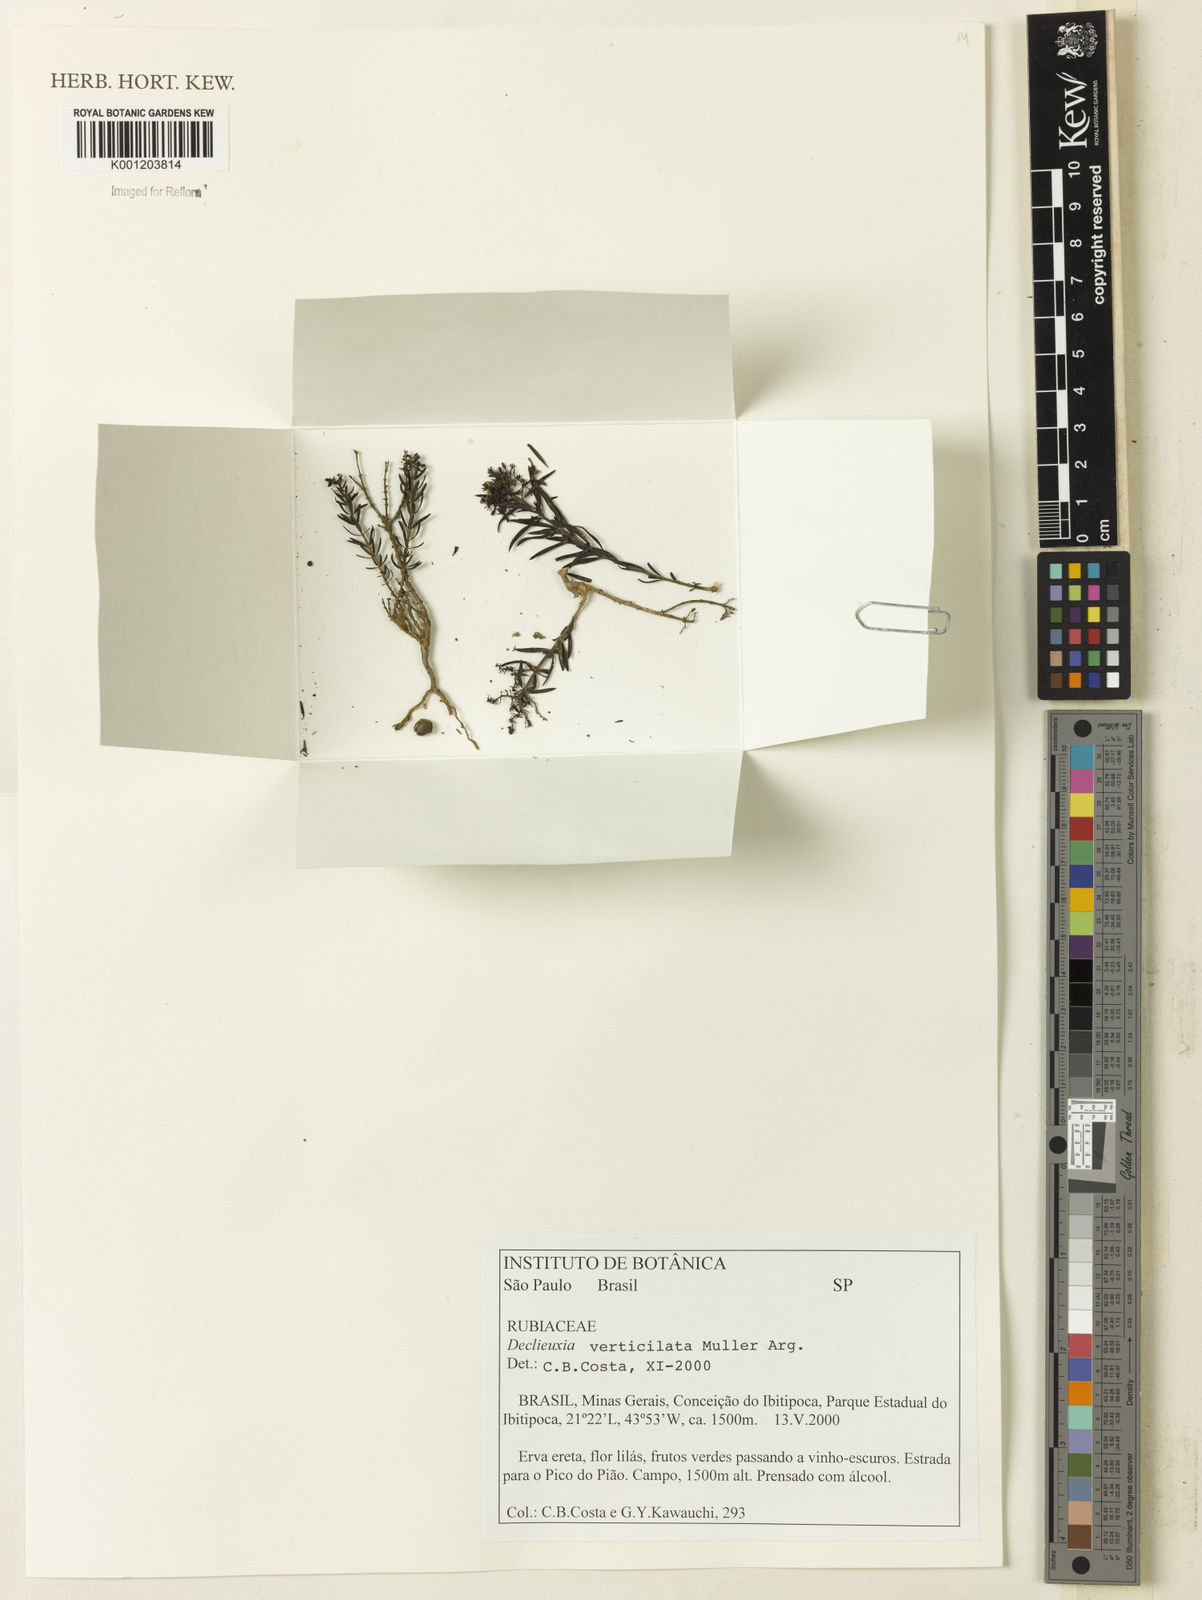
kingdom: Plantae
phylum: Tracheophyta
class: Magnoliopsida
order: Gentianales
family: Rubiaceae
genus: Declieuxia
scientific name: Declieuxia
